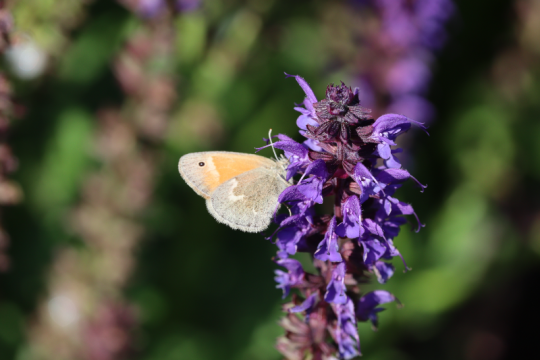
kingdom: Animalia
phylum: Arthropoda
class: Insecta
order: Lepidoptera
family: Nymphalidae
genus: Coenonympha
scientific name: Coenonympha california
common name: California Ringlet
